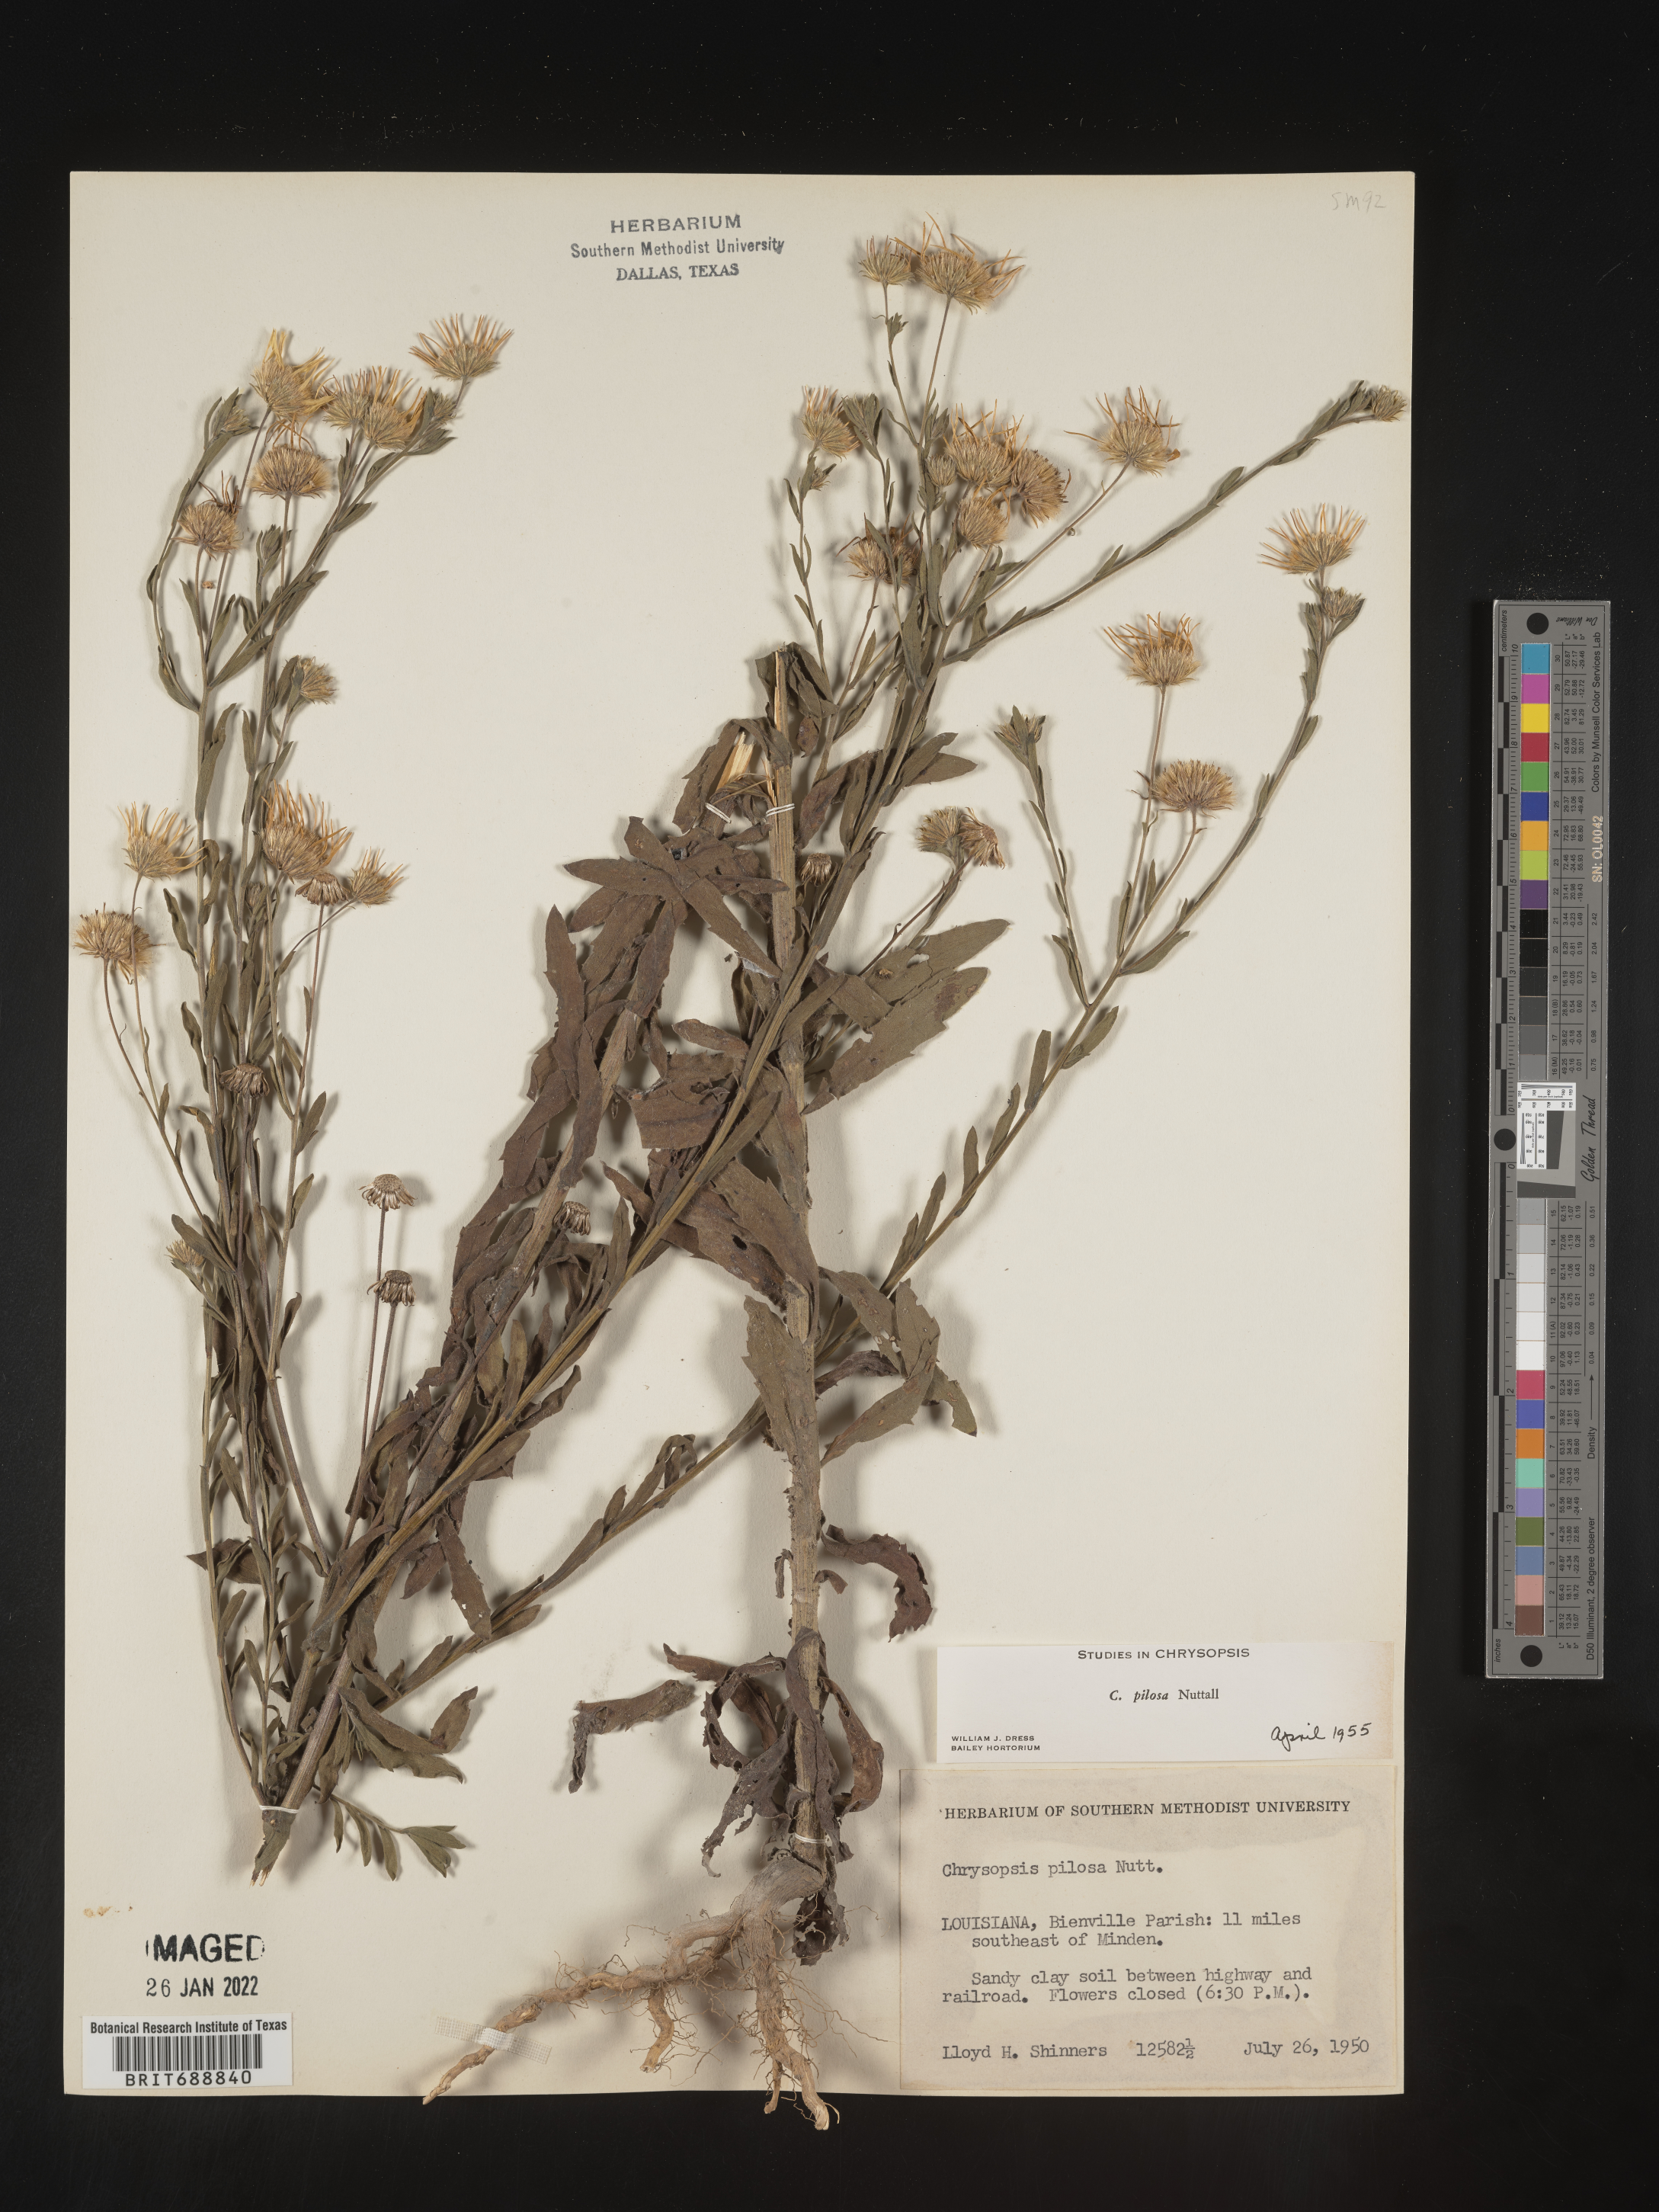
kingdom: Plantae
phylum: Tracheophyta
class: Magnoliopsida
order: Asterales
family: Asteraceae
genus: Bradburia
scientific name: Bradburia pilosa
